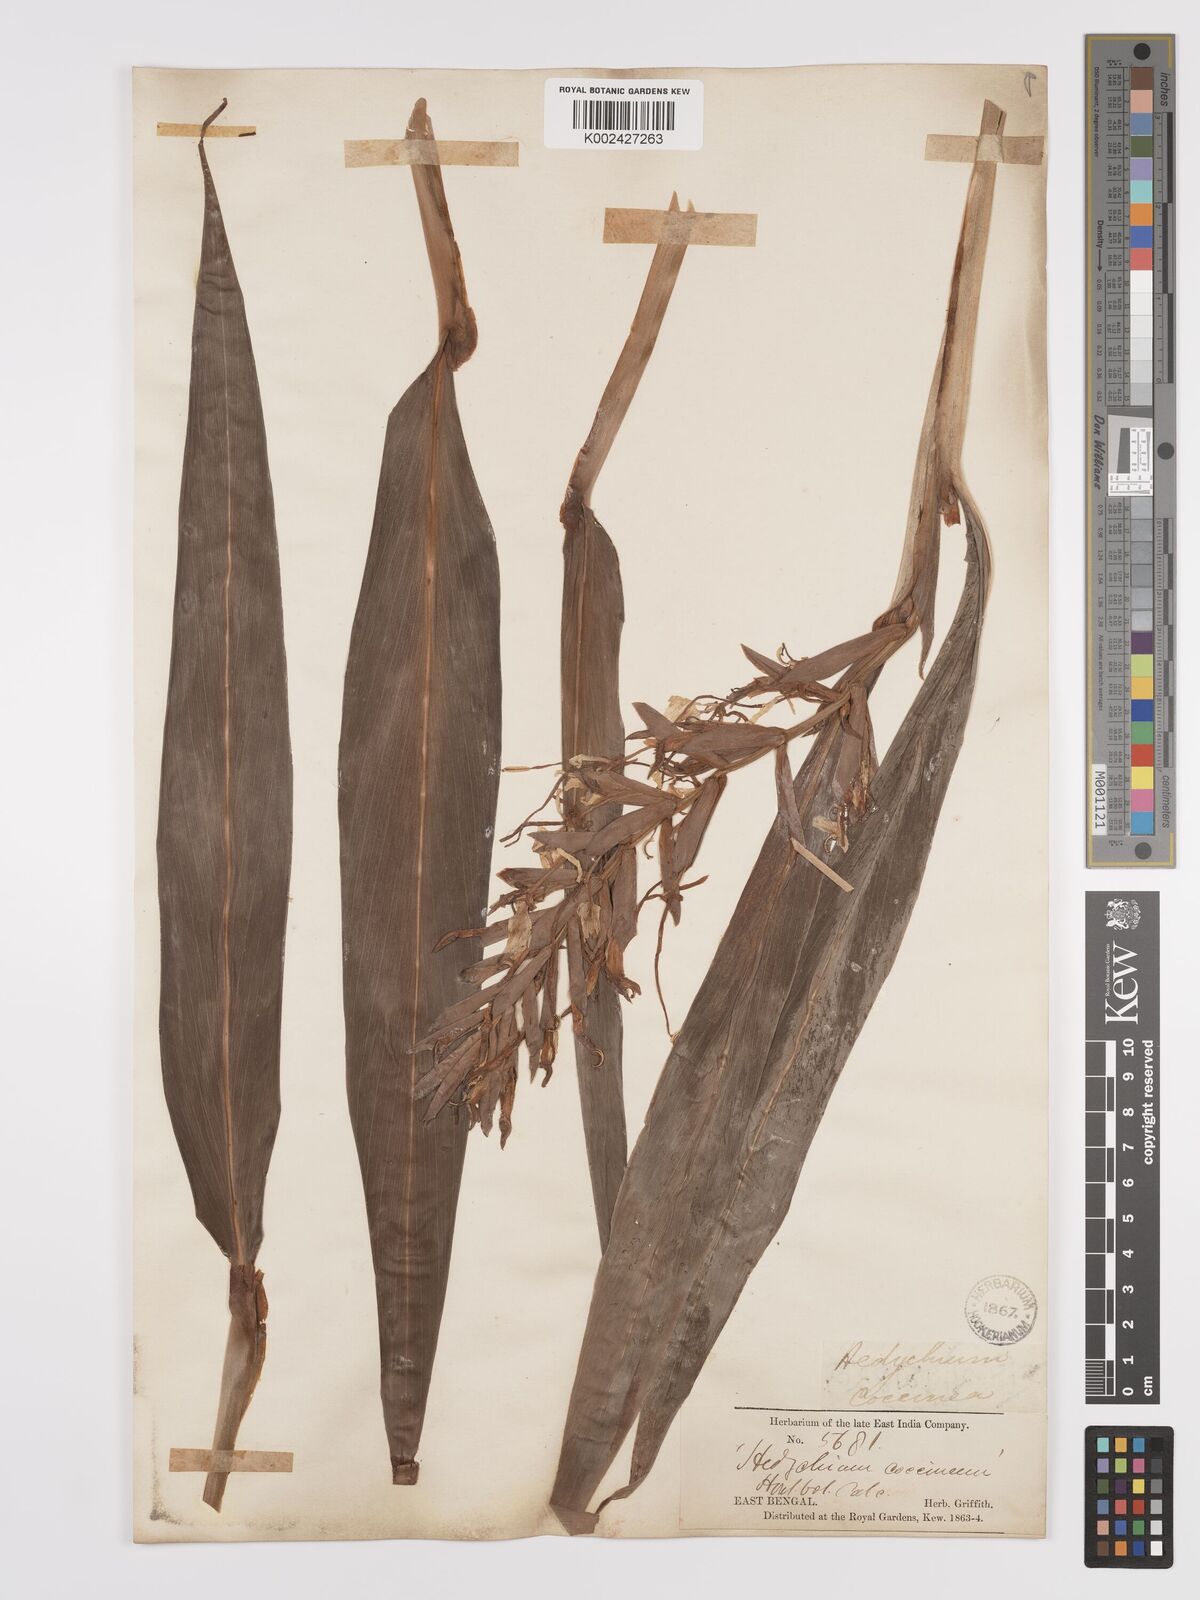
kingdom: Plantae
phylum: Tracheophyta
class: Liliopsida
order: Zingiberales
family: Zingiberaceae
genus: Hedychium
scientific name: Hedychium coccineum
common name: Red ginger-lily
